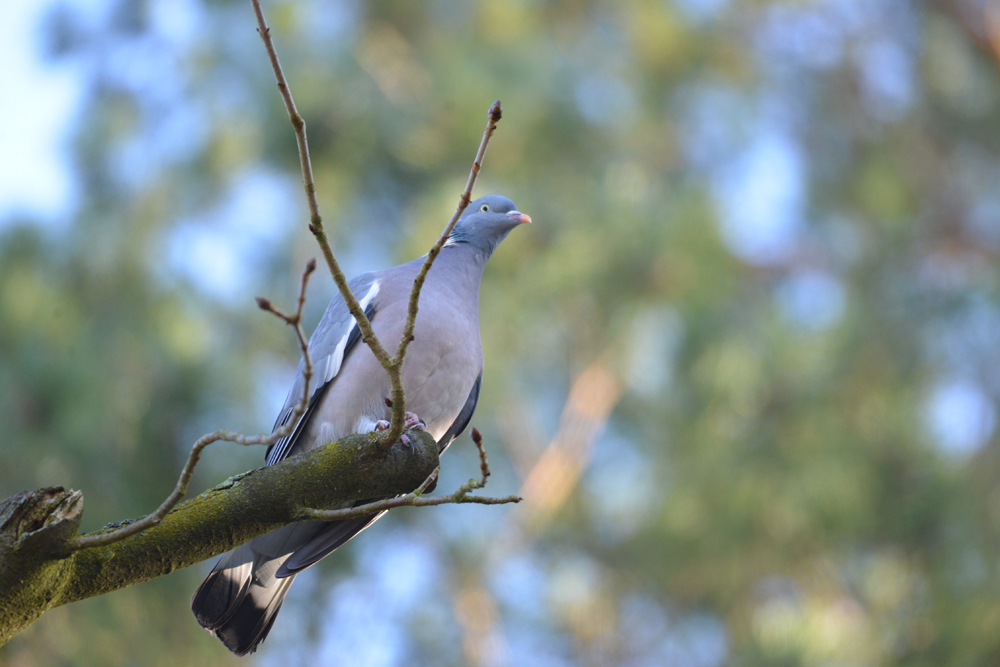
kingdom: Animalia
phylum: Chordata
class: Aves
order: Columbiformes
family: Columbidae
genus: Columba
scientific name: Columba palumbus
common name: Common wood pigeon
